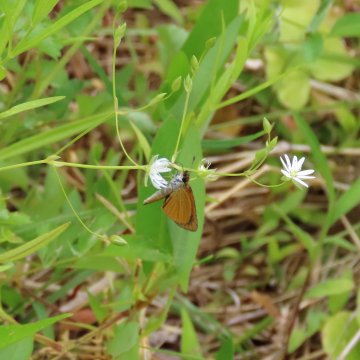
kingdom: Animalia
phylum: Arthropoda
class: Insecta
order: Lepidoptera
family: Hesperiidae
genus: Ancyloxypha
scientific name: Ancyloxypha numitor
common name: Least Skipper
